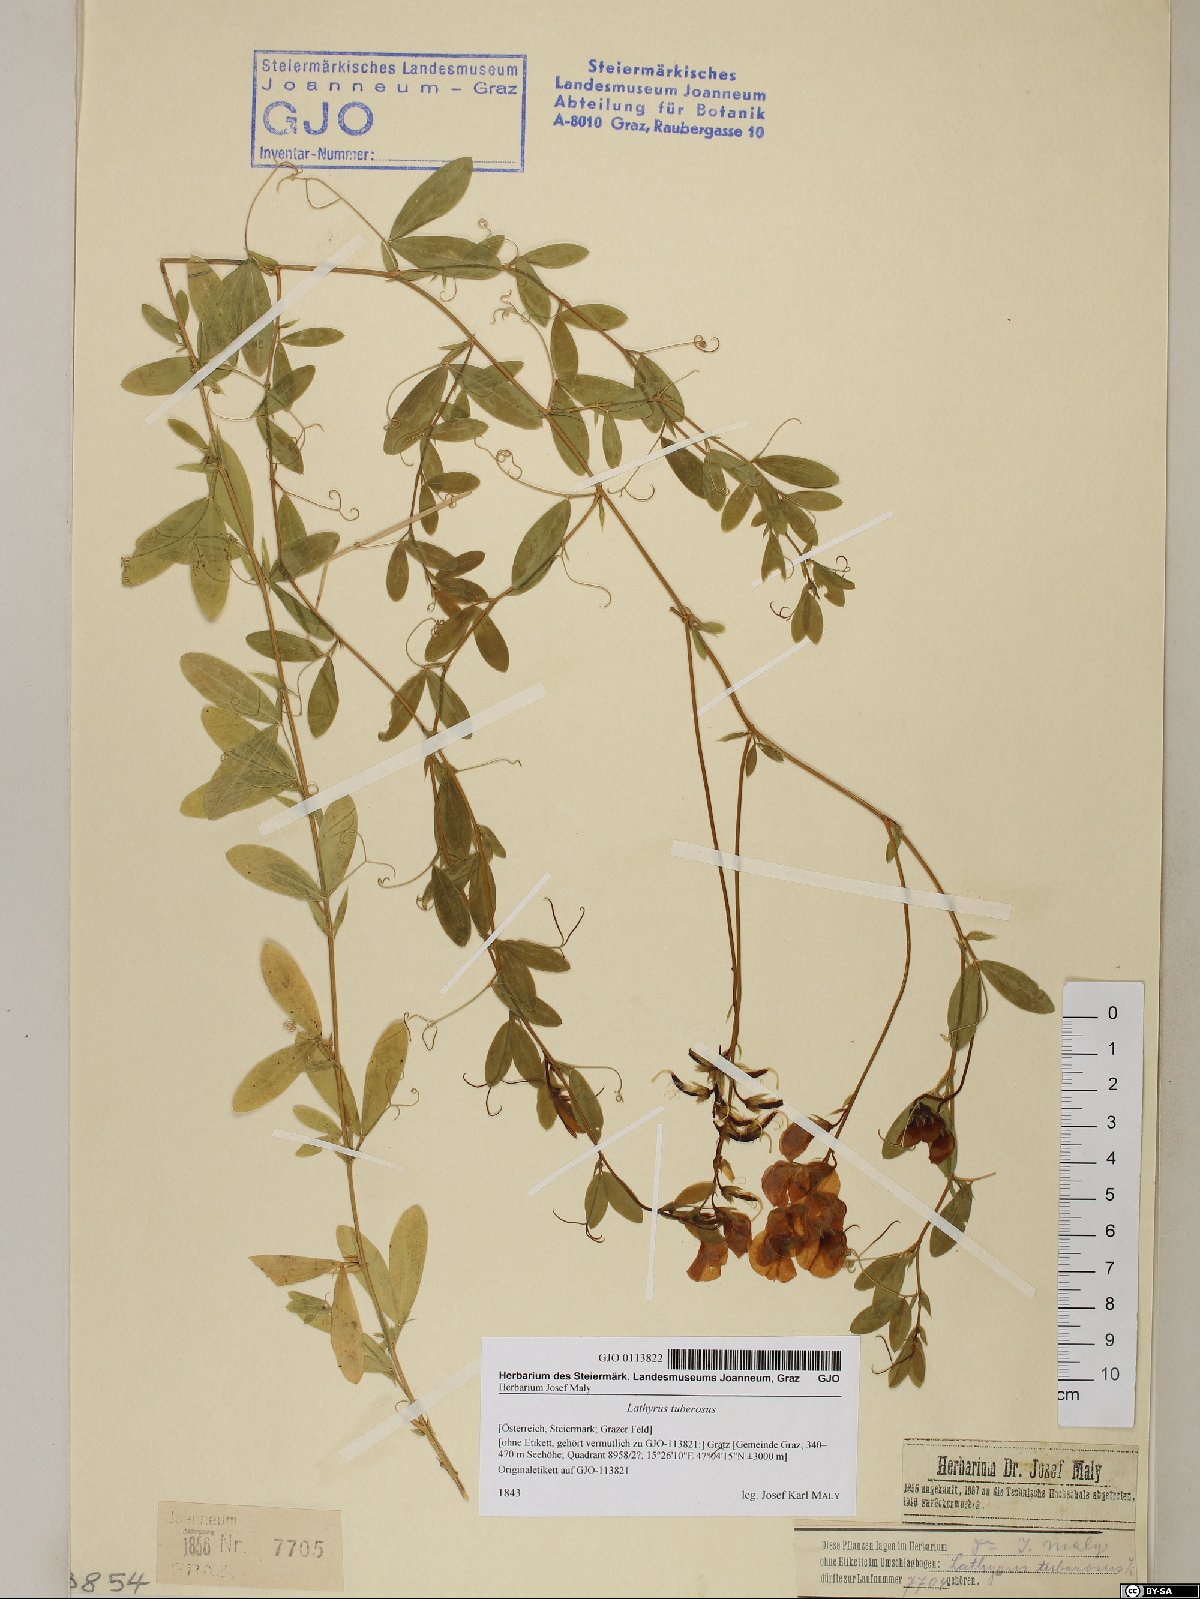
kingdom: Plantae
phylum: Tracheophyta
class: Magnoliopsida
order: Fabales
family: Fabaceae
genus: Lathyrus
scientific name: Lathyrus tuberosus
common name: Tuberous pea
